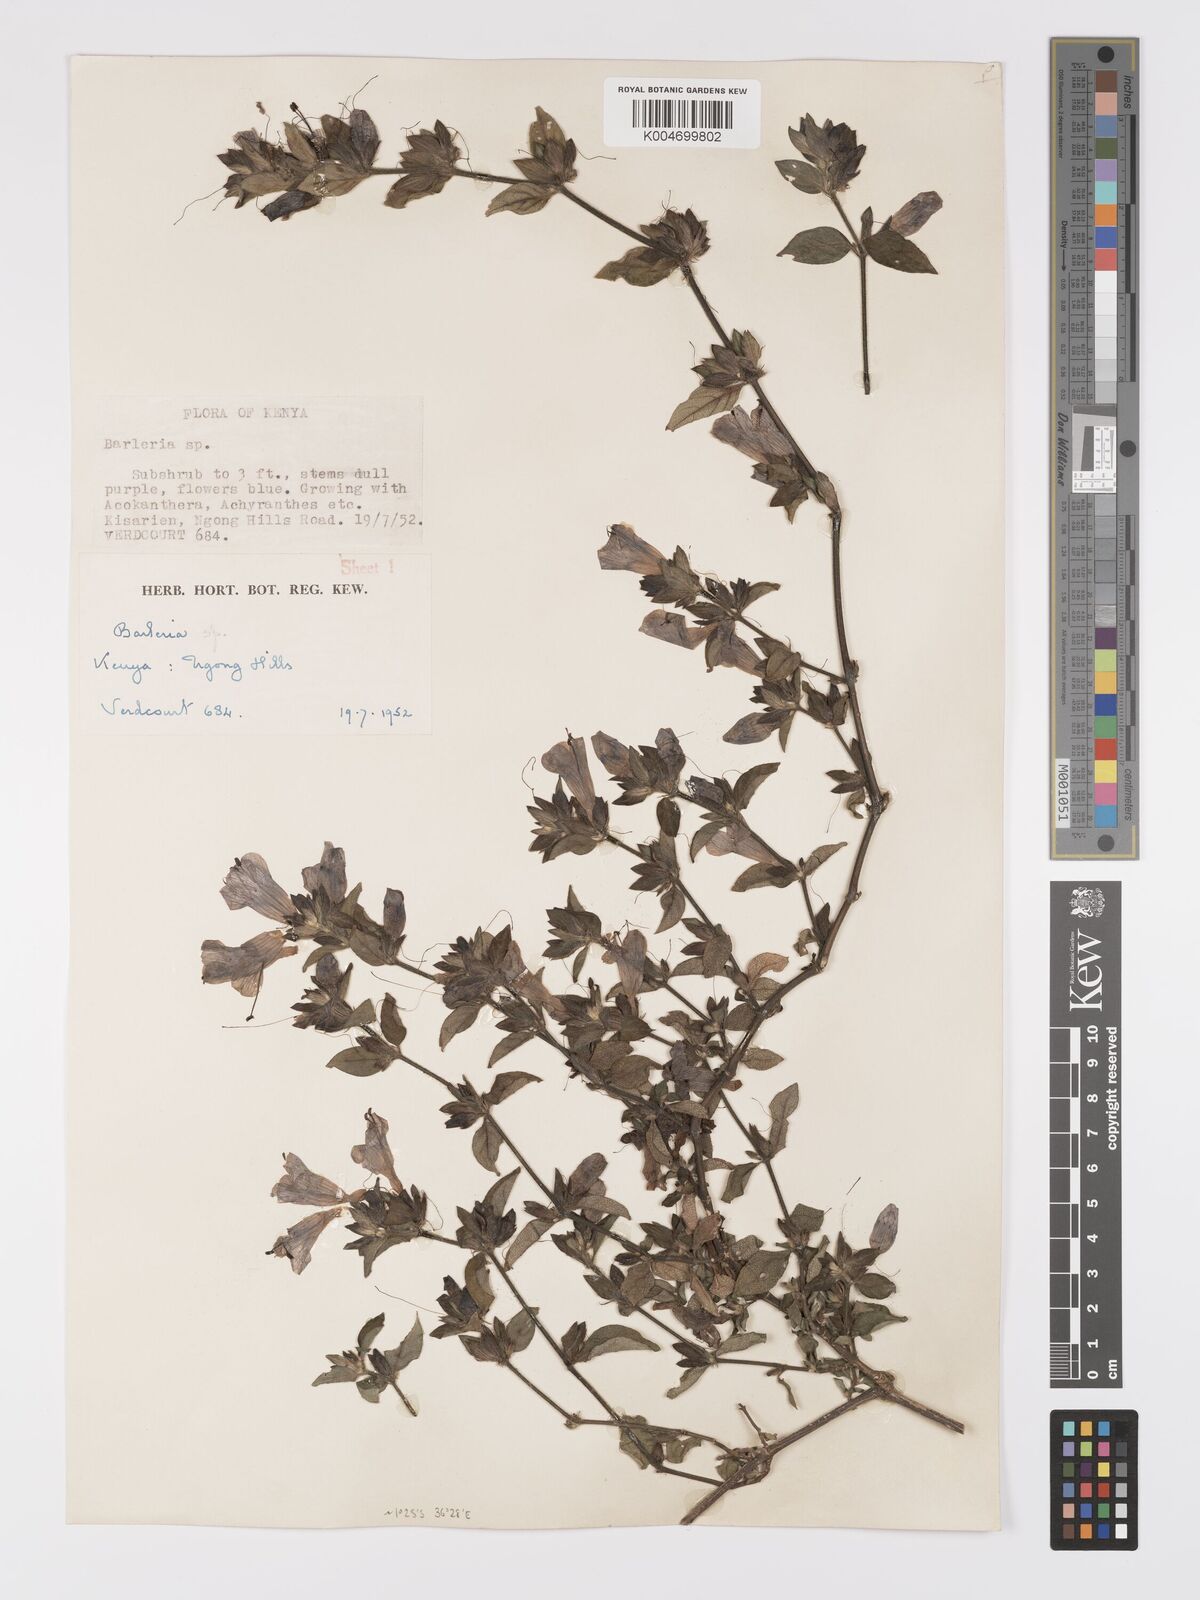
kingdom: Plantae
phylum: Tracheophyta
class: Magnoliopsida
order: Lamiales
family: Acanthaceae
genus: Barleria
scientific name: Barleria ventricosa
